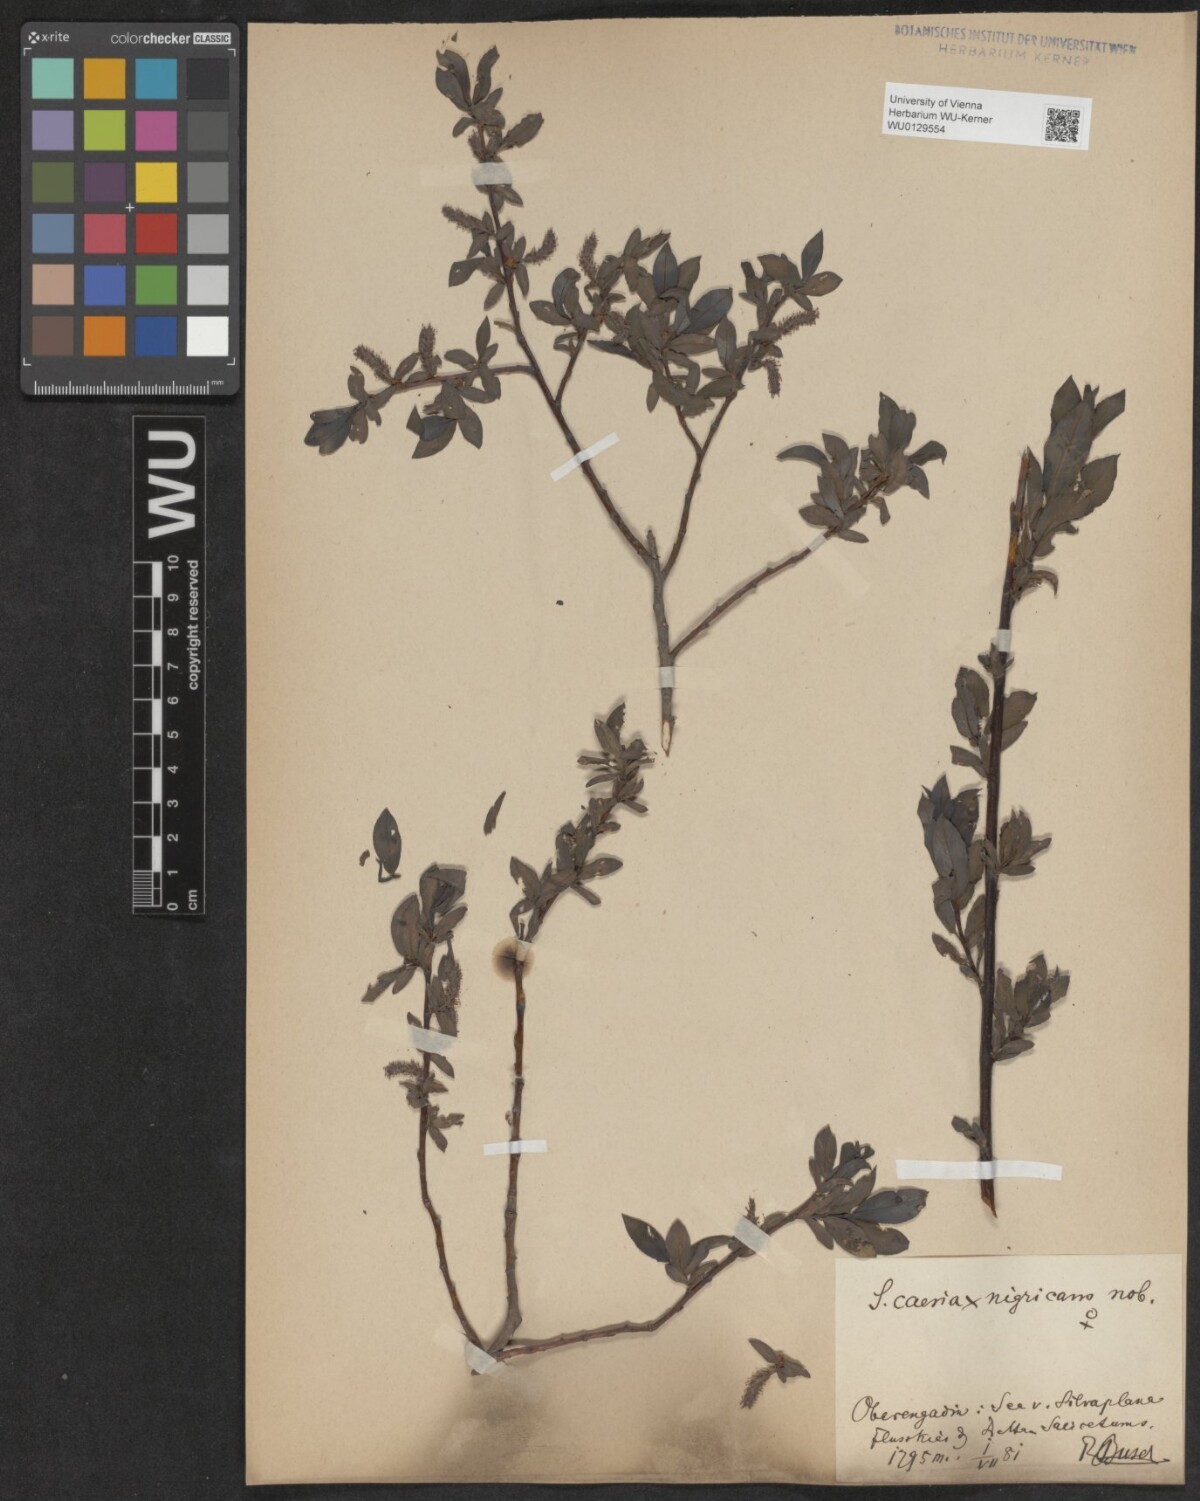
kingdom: Plantae
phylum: Tracheophyta
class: Magnoliopsida
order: Malpighiales
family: Salicaceae
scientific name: Salicaceae
